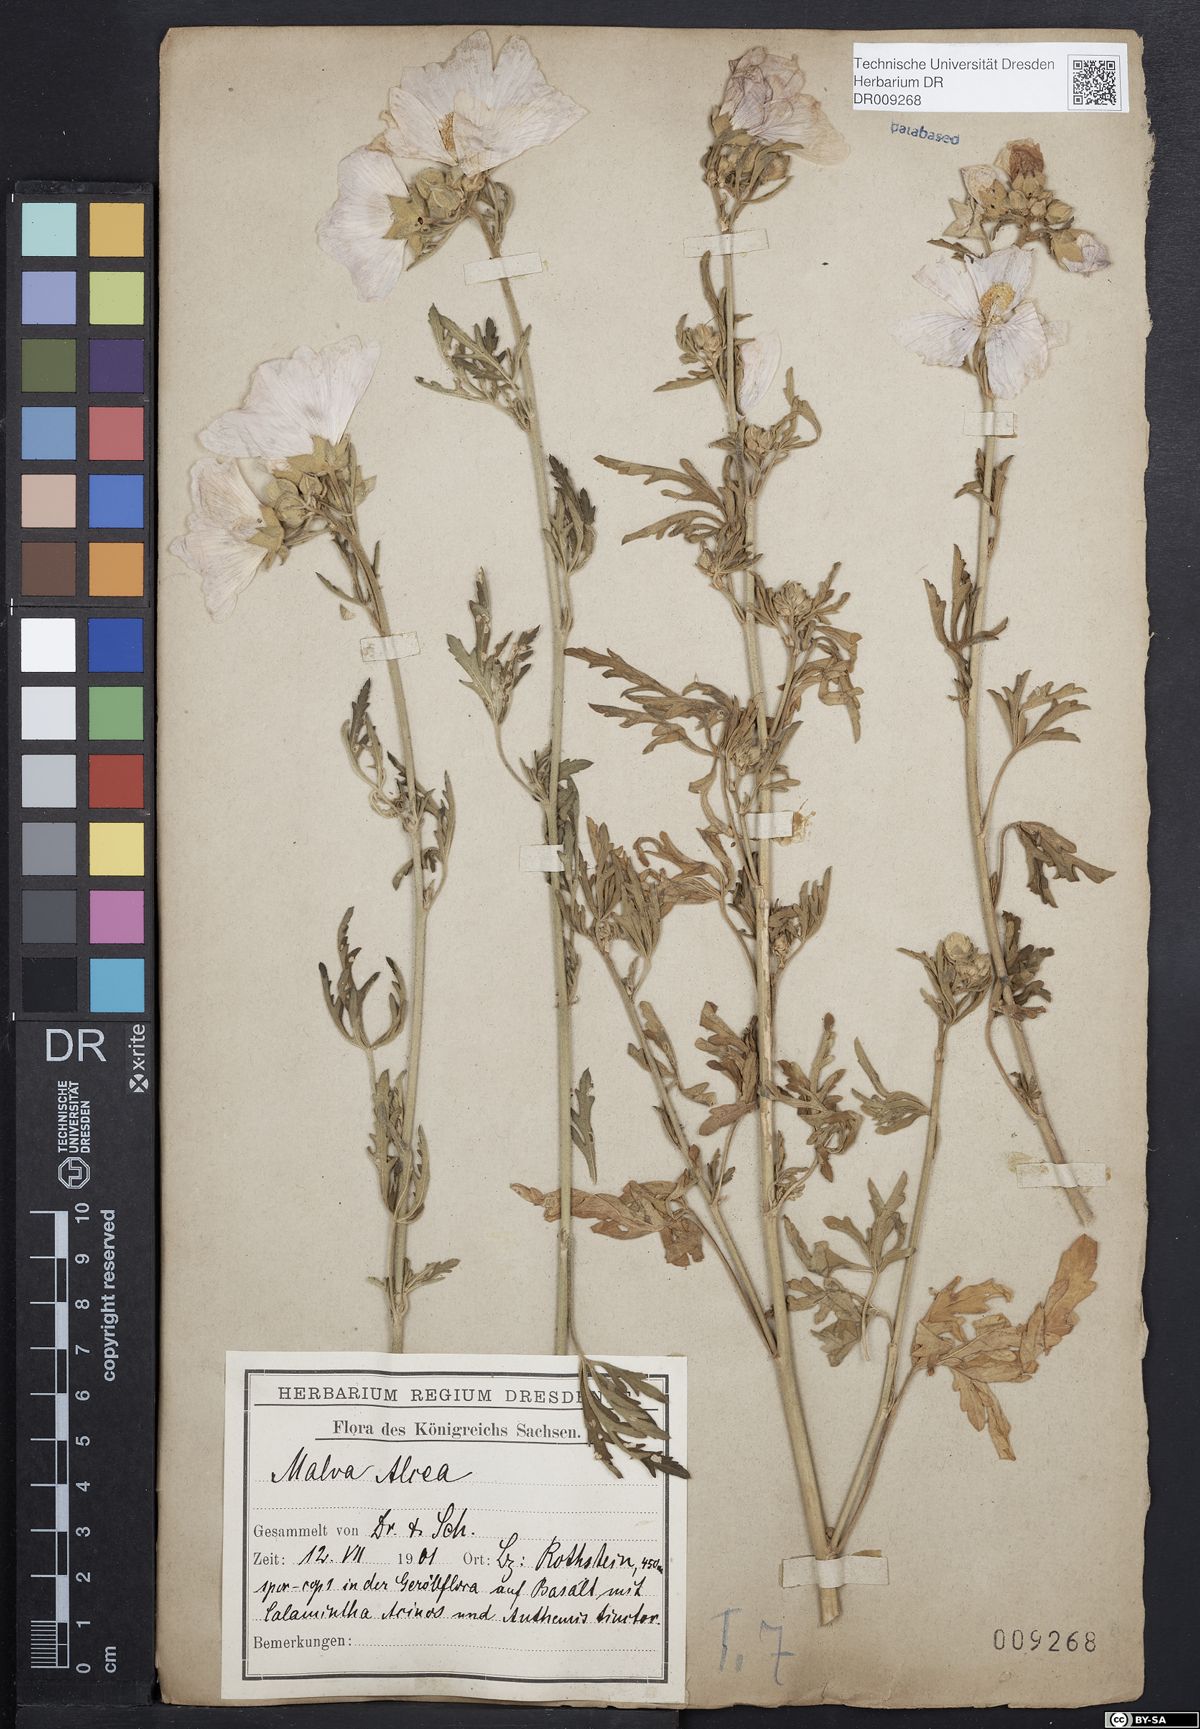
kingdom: Plantae
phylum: Tracheophyta
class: Magnoliopsida
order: Malvales
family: Malvaceae
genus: Malva
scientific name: Malva alcea
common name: Greater musk-mallow
